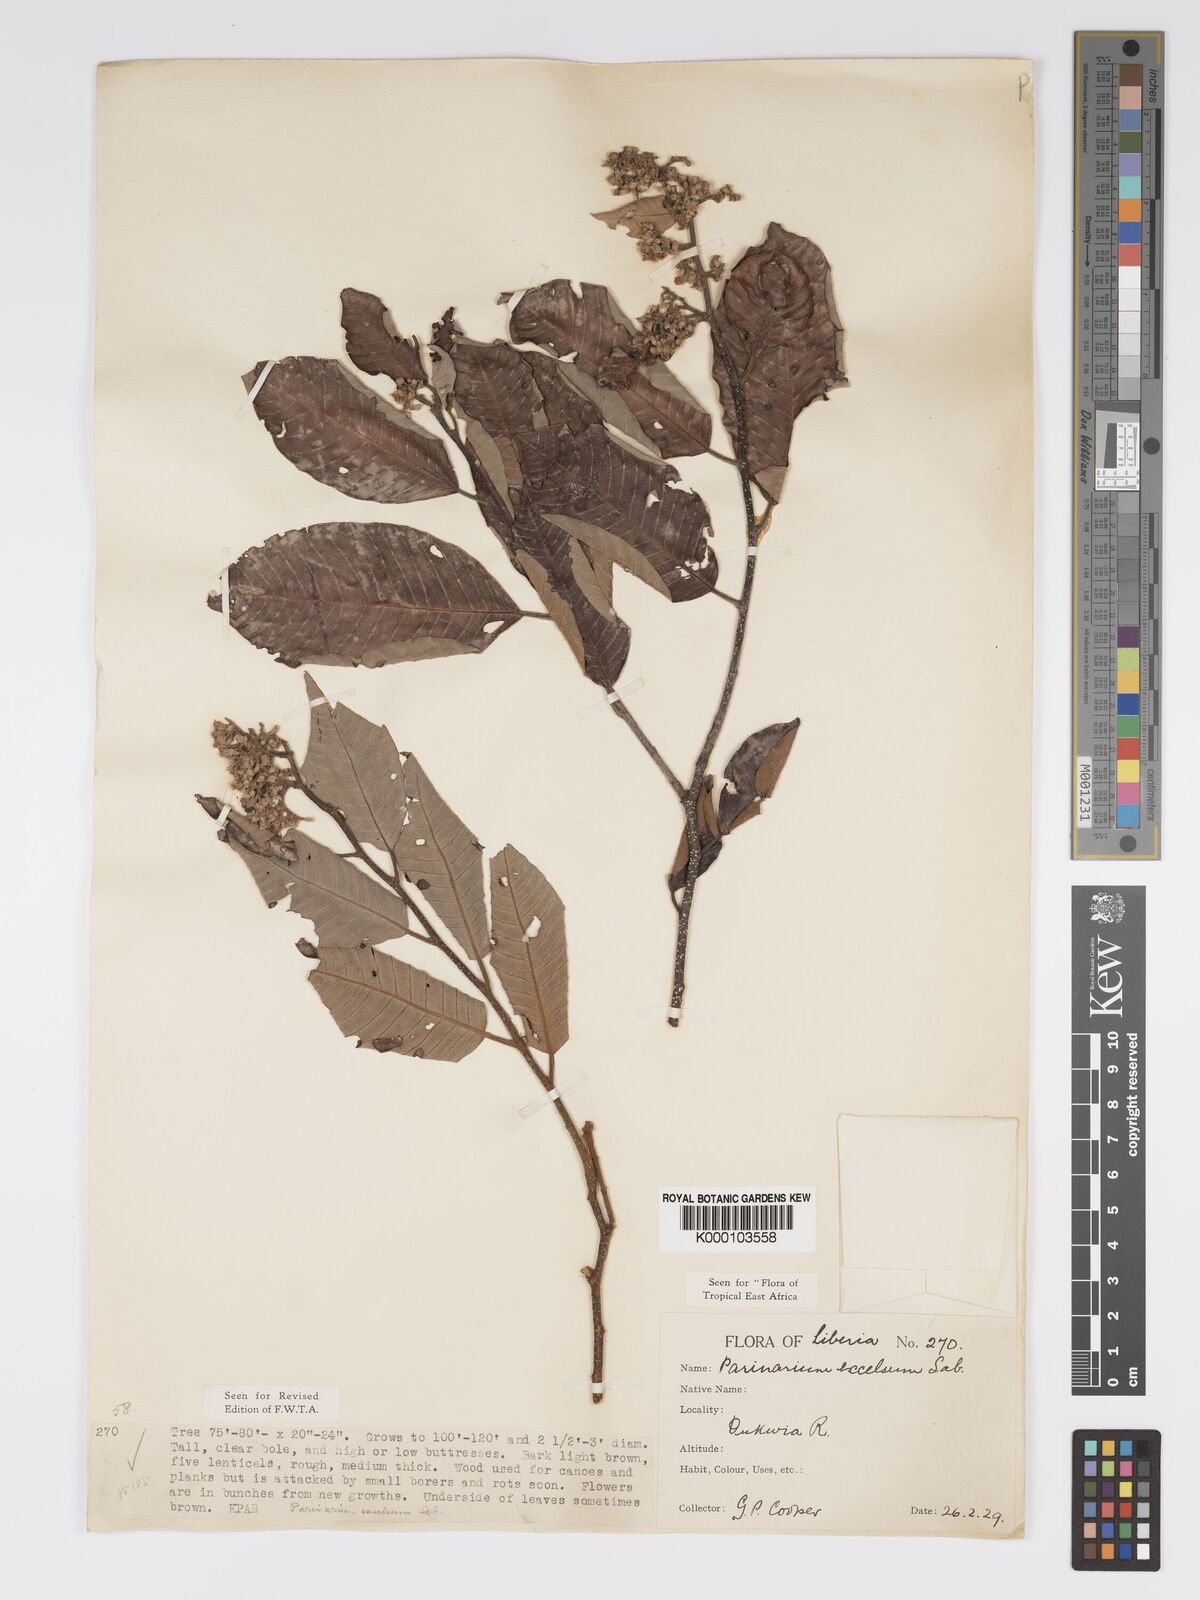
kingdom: Plantae
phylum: Tracheophyta
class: Magnoliopsida
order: Malpighiales
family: Chrysobalanaceae
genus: Parinari
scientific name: Parinari excelsa
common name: Guinea-plum
